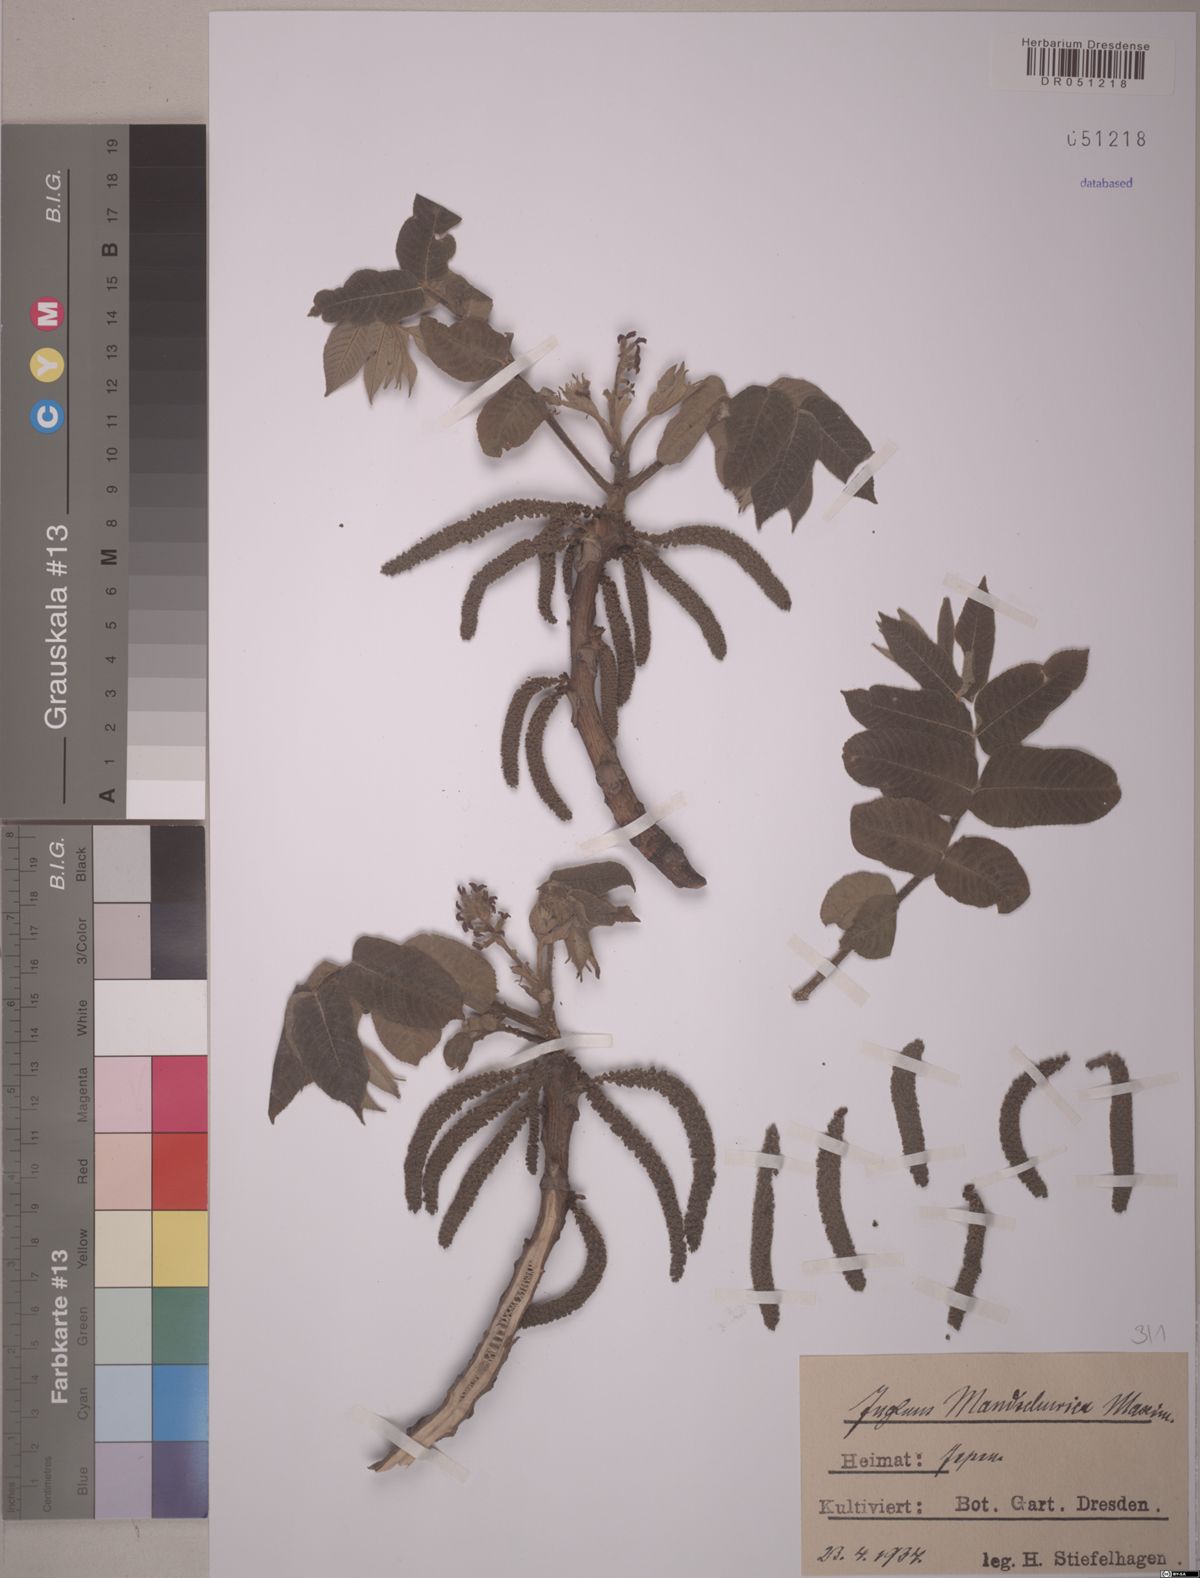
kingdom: Plantae
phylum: Tracheophyta
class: Magnoliopsida
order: Fagales
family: Juglandaceae
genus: Juglans
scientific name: Juglans mandshurica
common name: Manchurian walnut
